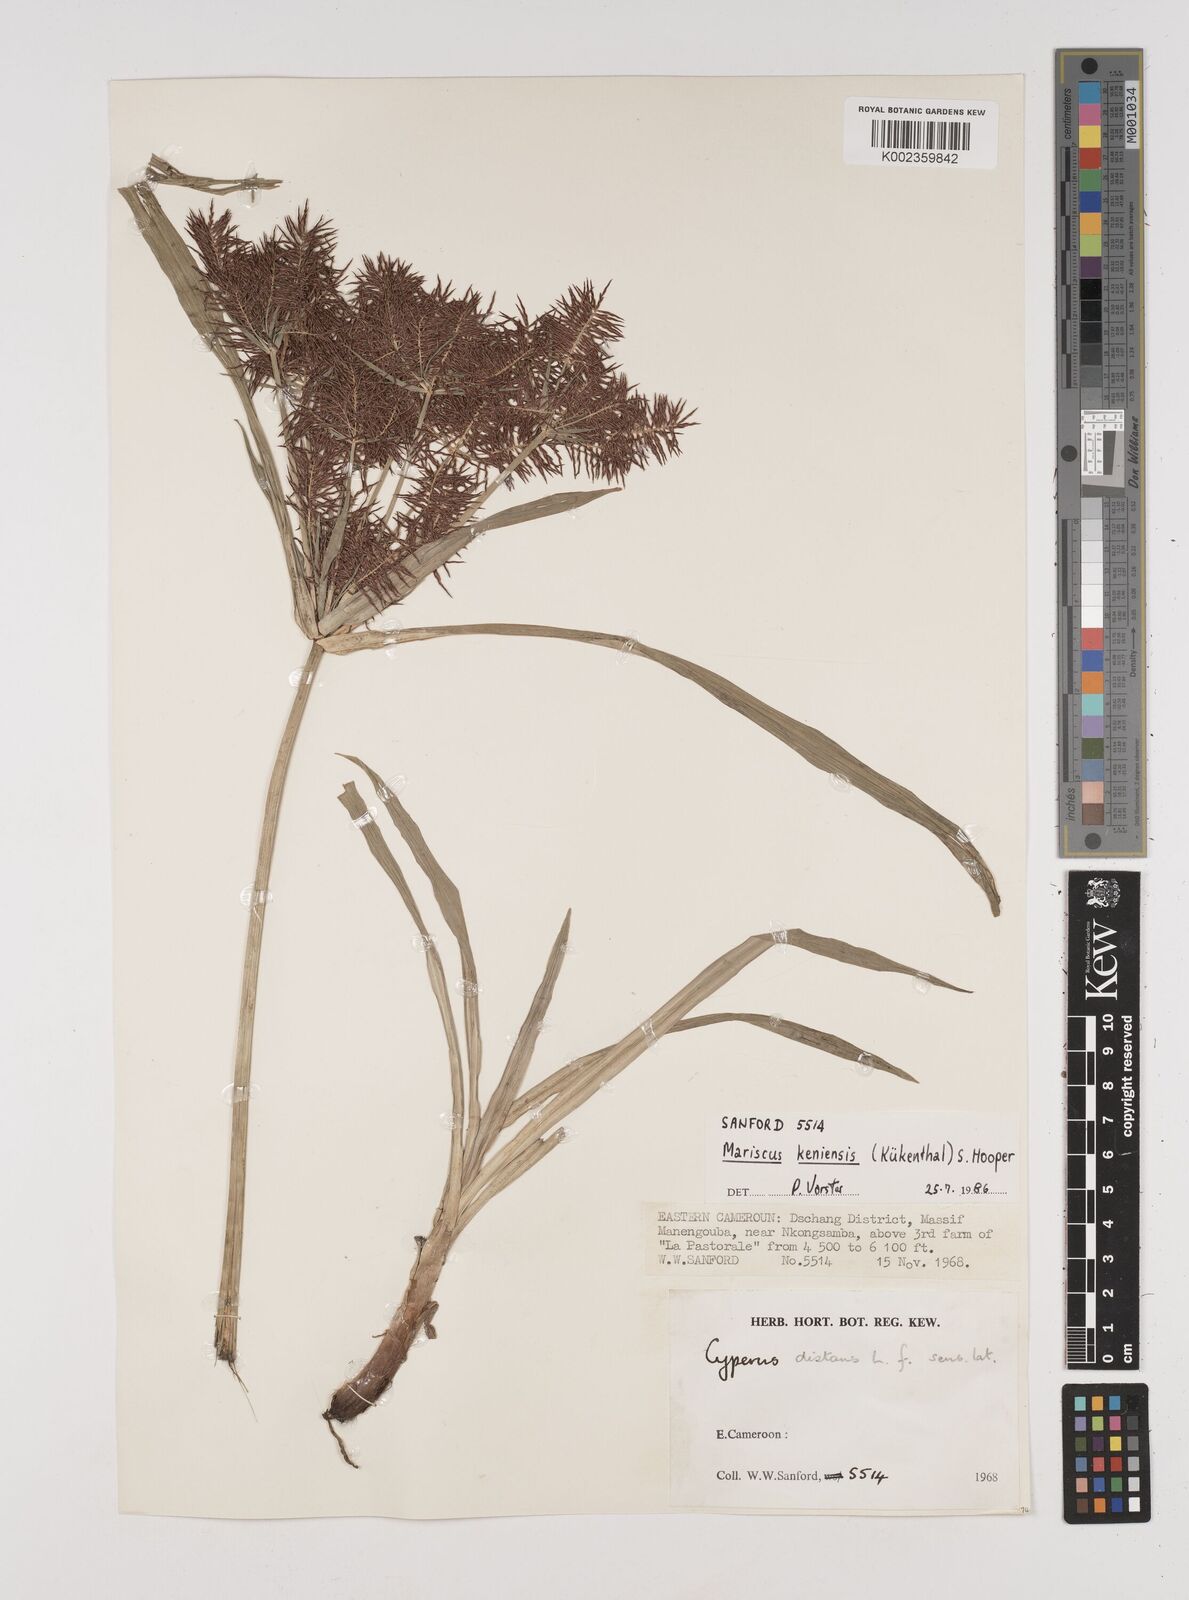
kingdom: Plantae
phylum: Tracheophyta
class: Liliopsida
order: Poales
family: Cyperaceae
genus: Cyperus
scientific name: Cyperus distans
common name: Slender cyperus
